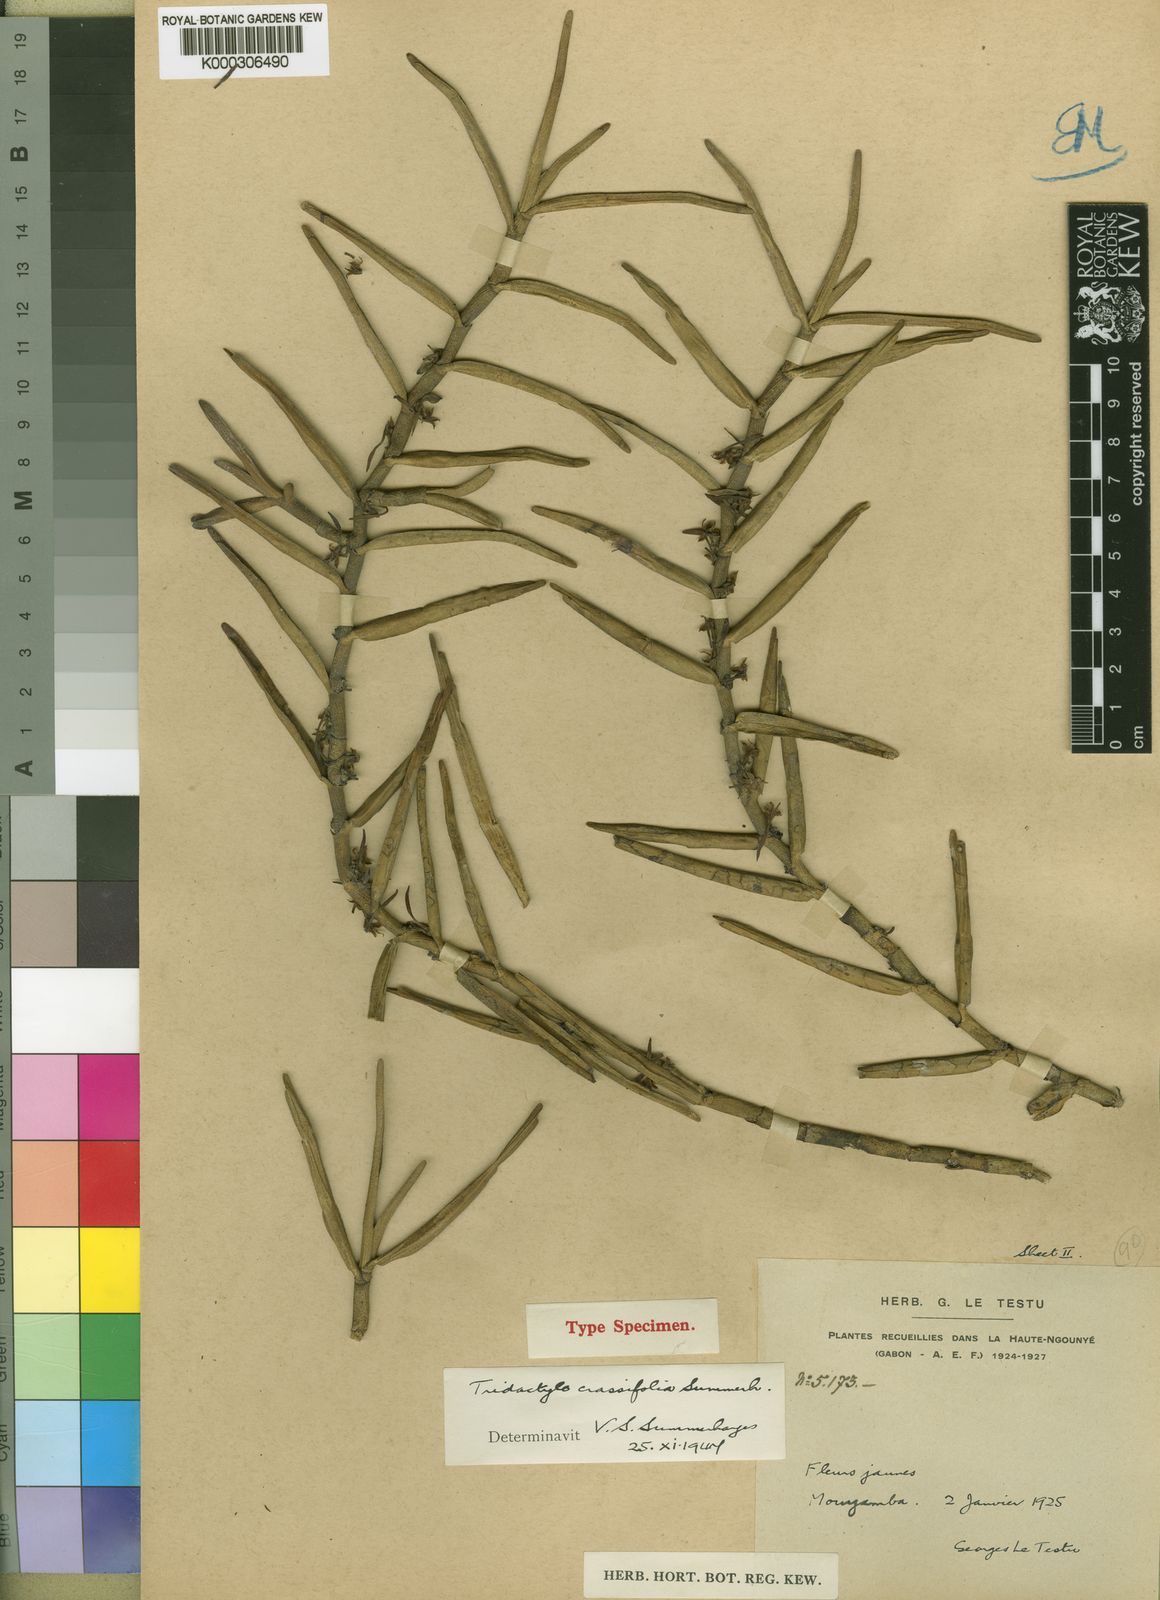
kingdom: Plantae
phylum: Tracheophyta
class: Liliopsida
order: Asparagales
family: Orchidaceae
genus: Tridactyle
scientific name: Tridactyle crassifolia
